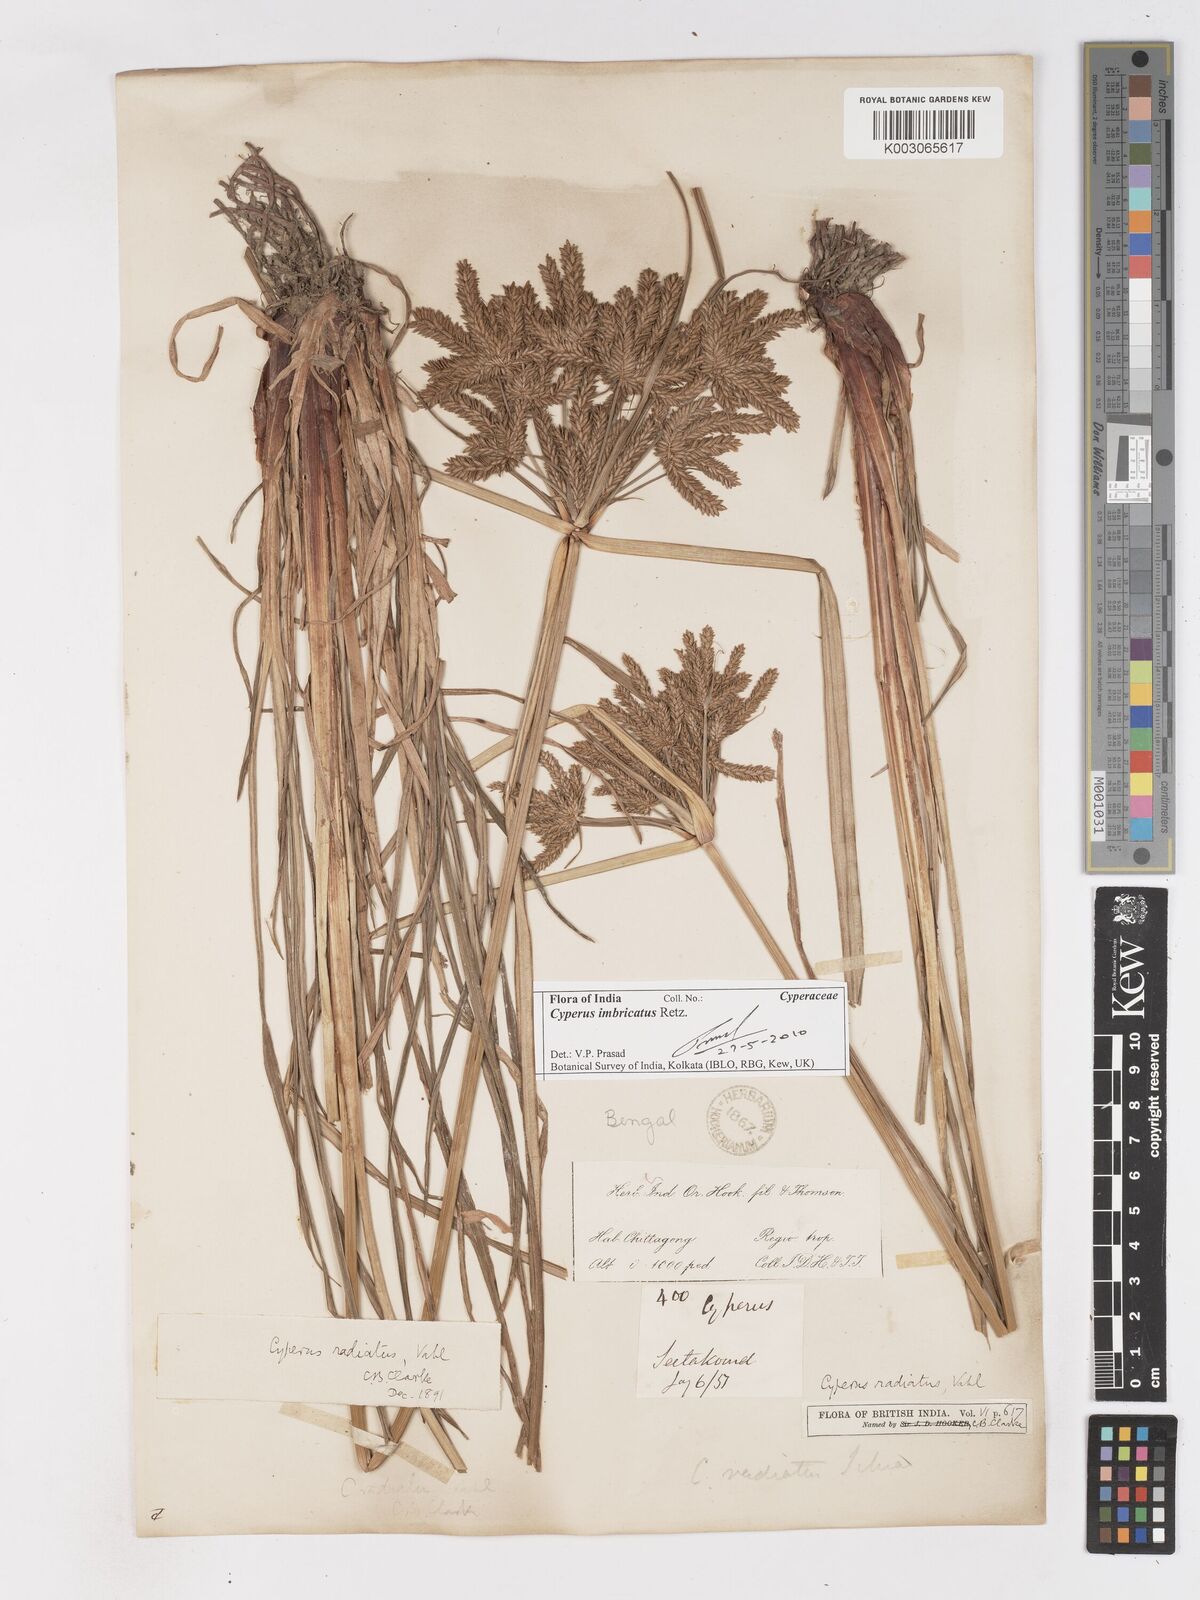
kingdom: Plantae
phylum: Tracheophyta
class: Liliopsida
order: Poales
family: Cyperaceae
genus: Cyperus
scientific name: Cyperus imbricatus
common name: Shingle flatsedge
